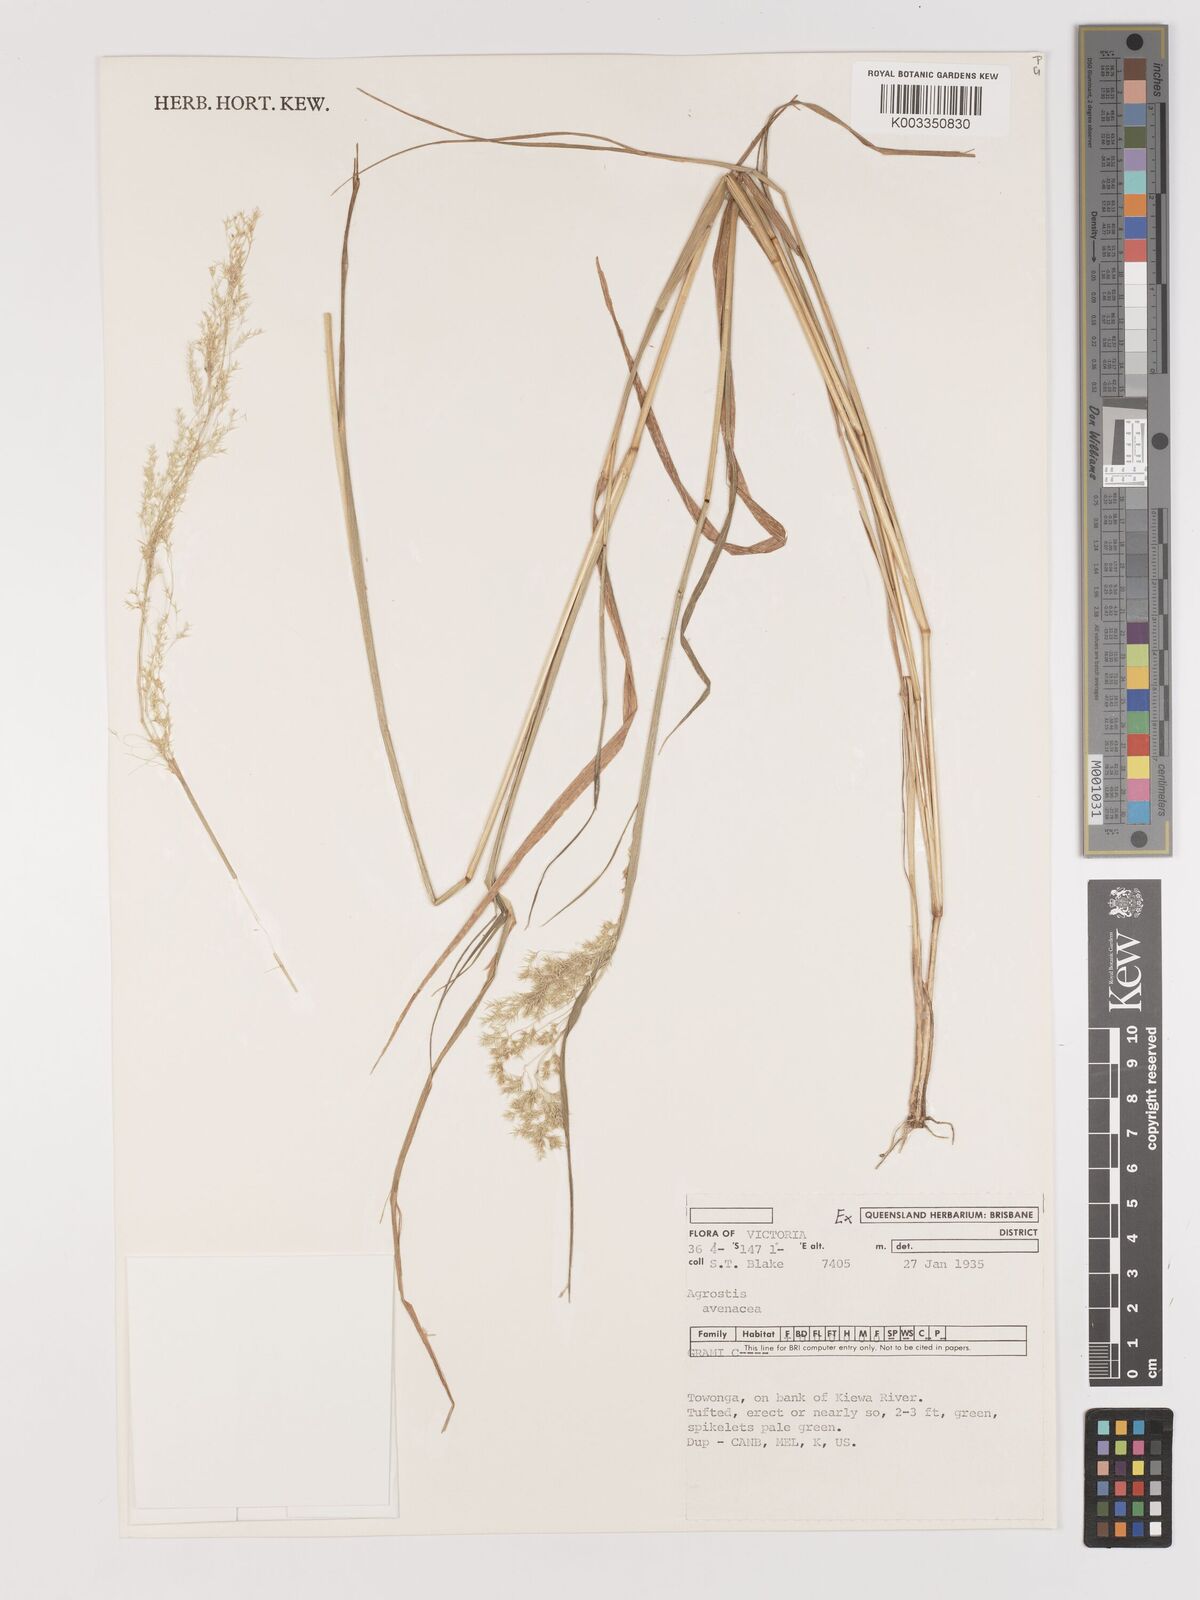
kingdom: Plantae
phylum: Tracheophyta
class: Liliopsida
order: Poales
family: Poaceae
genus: Lachnagrostis
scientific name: Lachnagrostis filiformis
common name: Bentgrass
